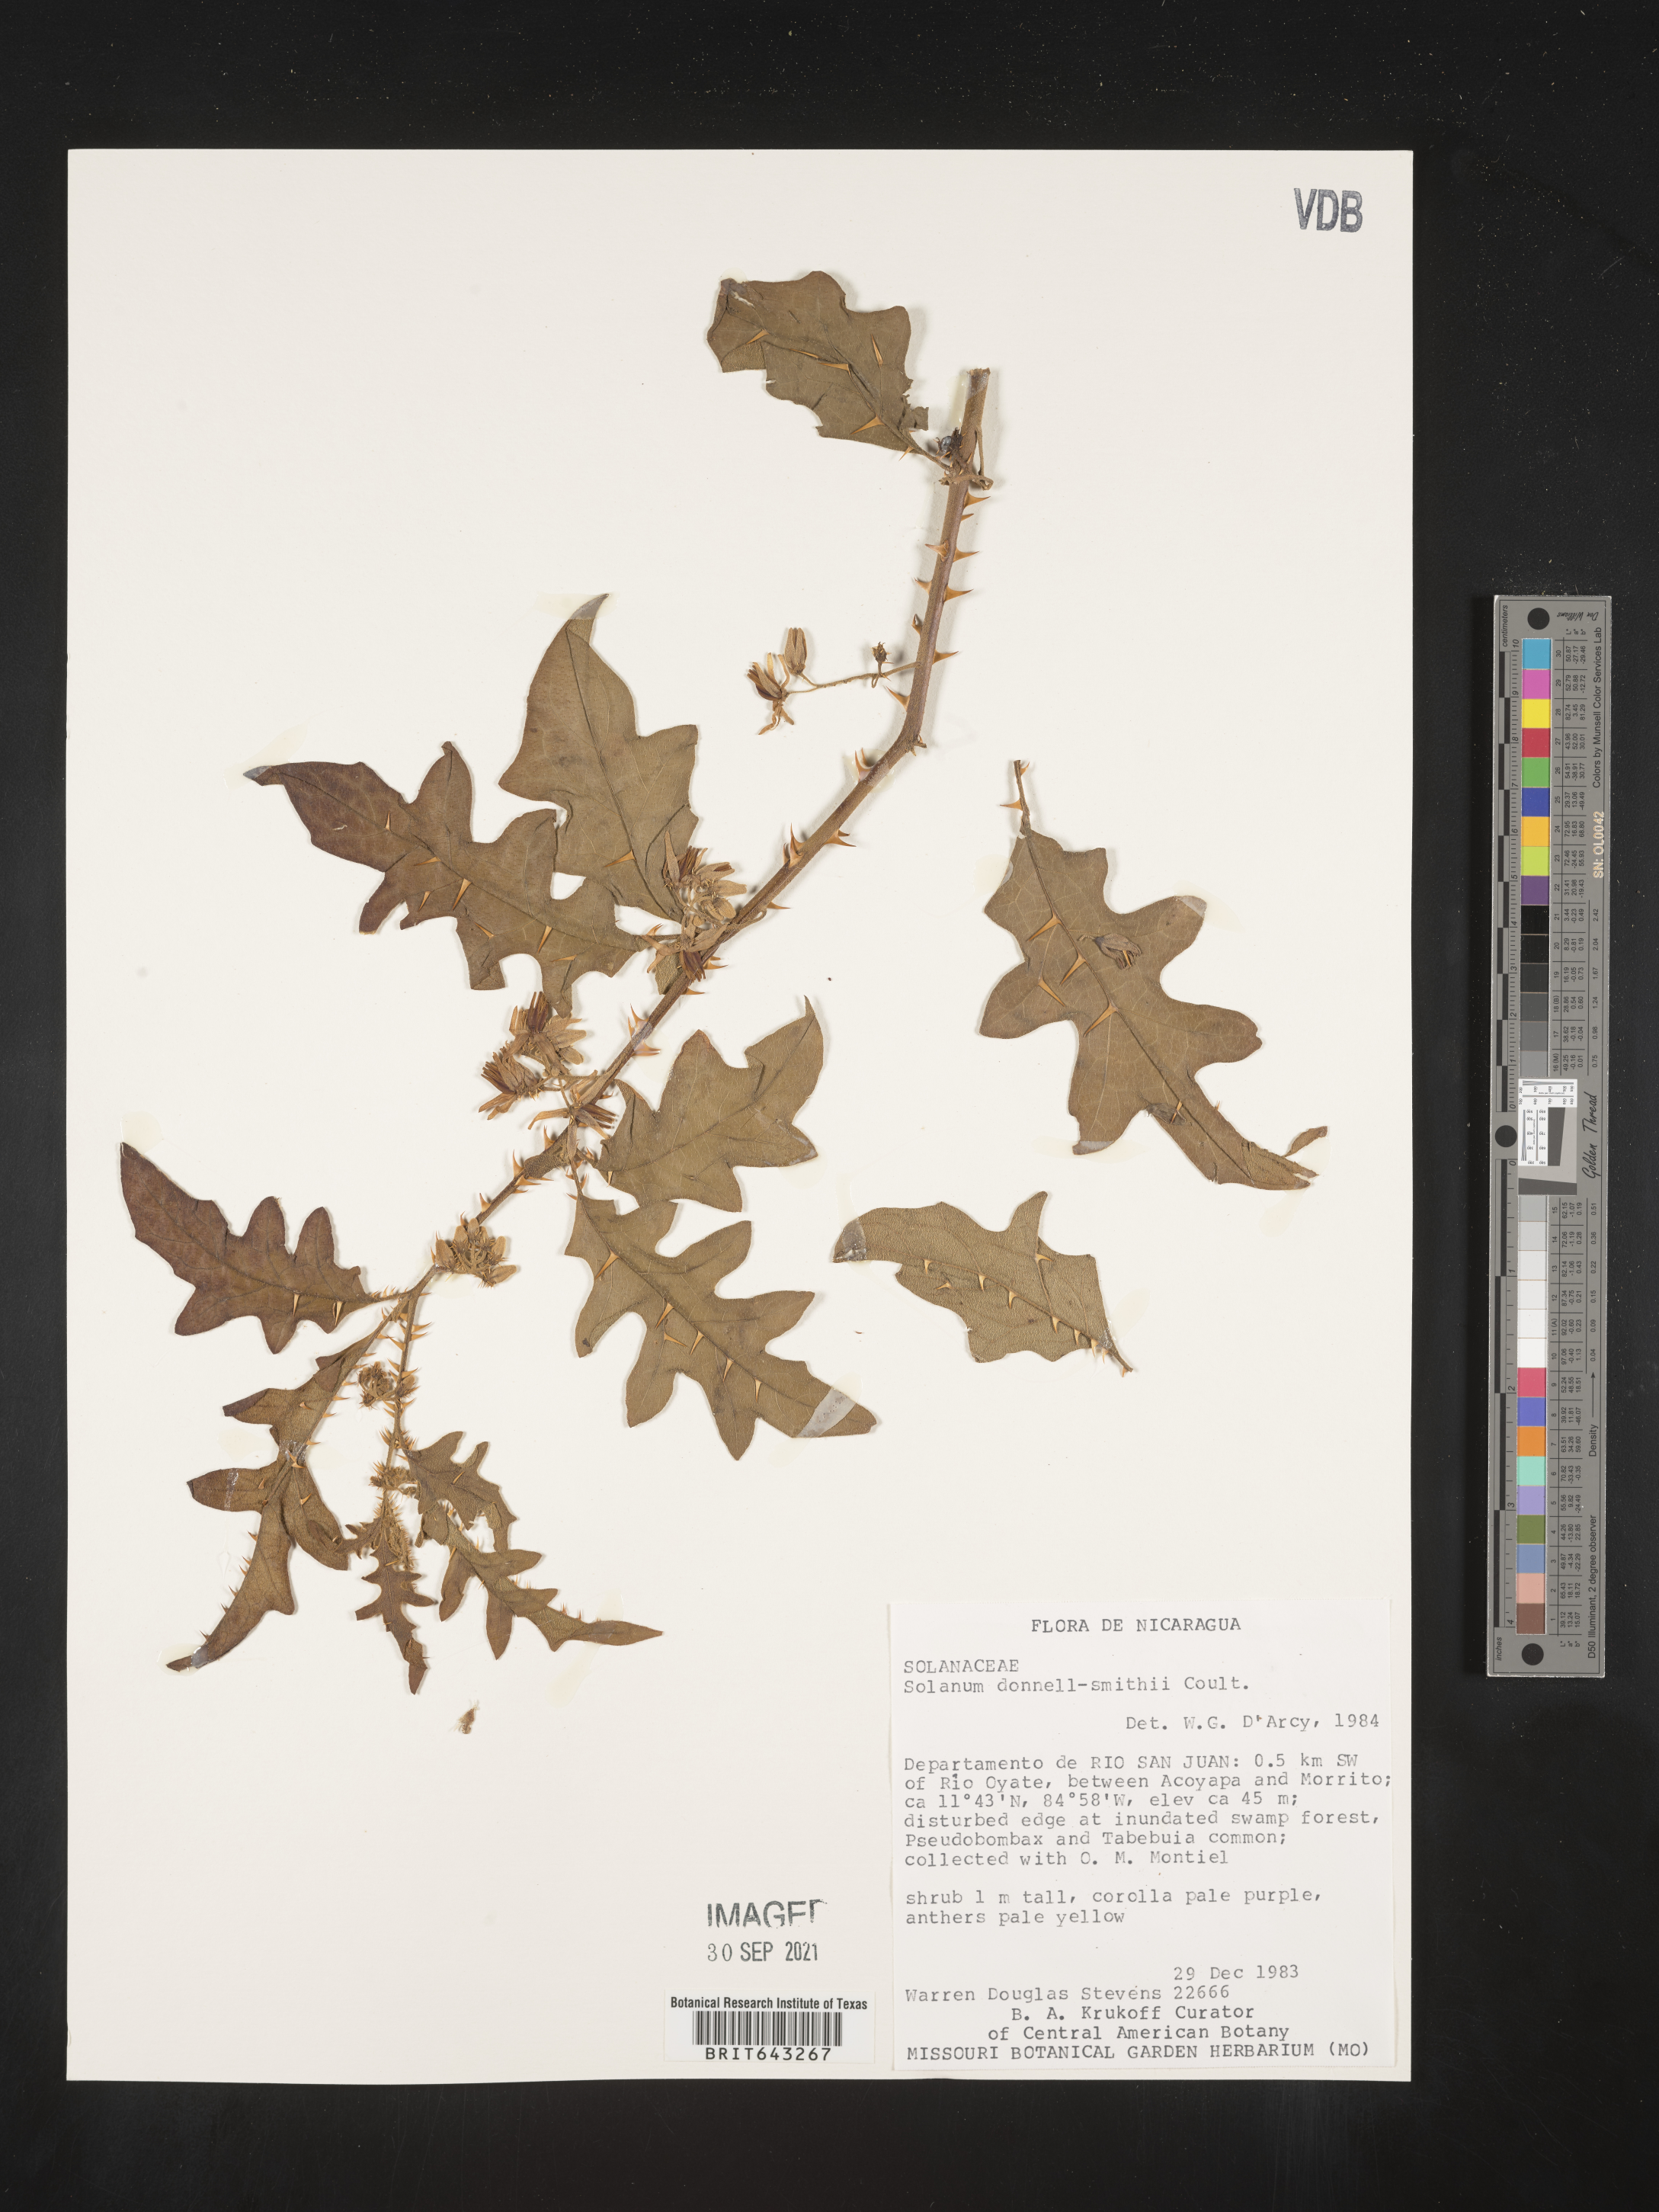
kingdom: Plantae
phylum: Tracheophyta
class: Magnoliopsida
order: Solanales
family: Solanaceae
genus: Solanum
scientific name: Solanum
